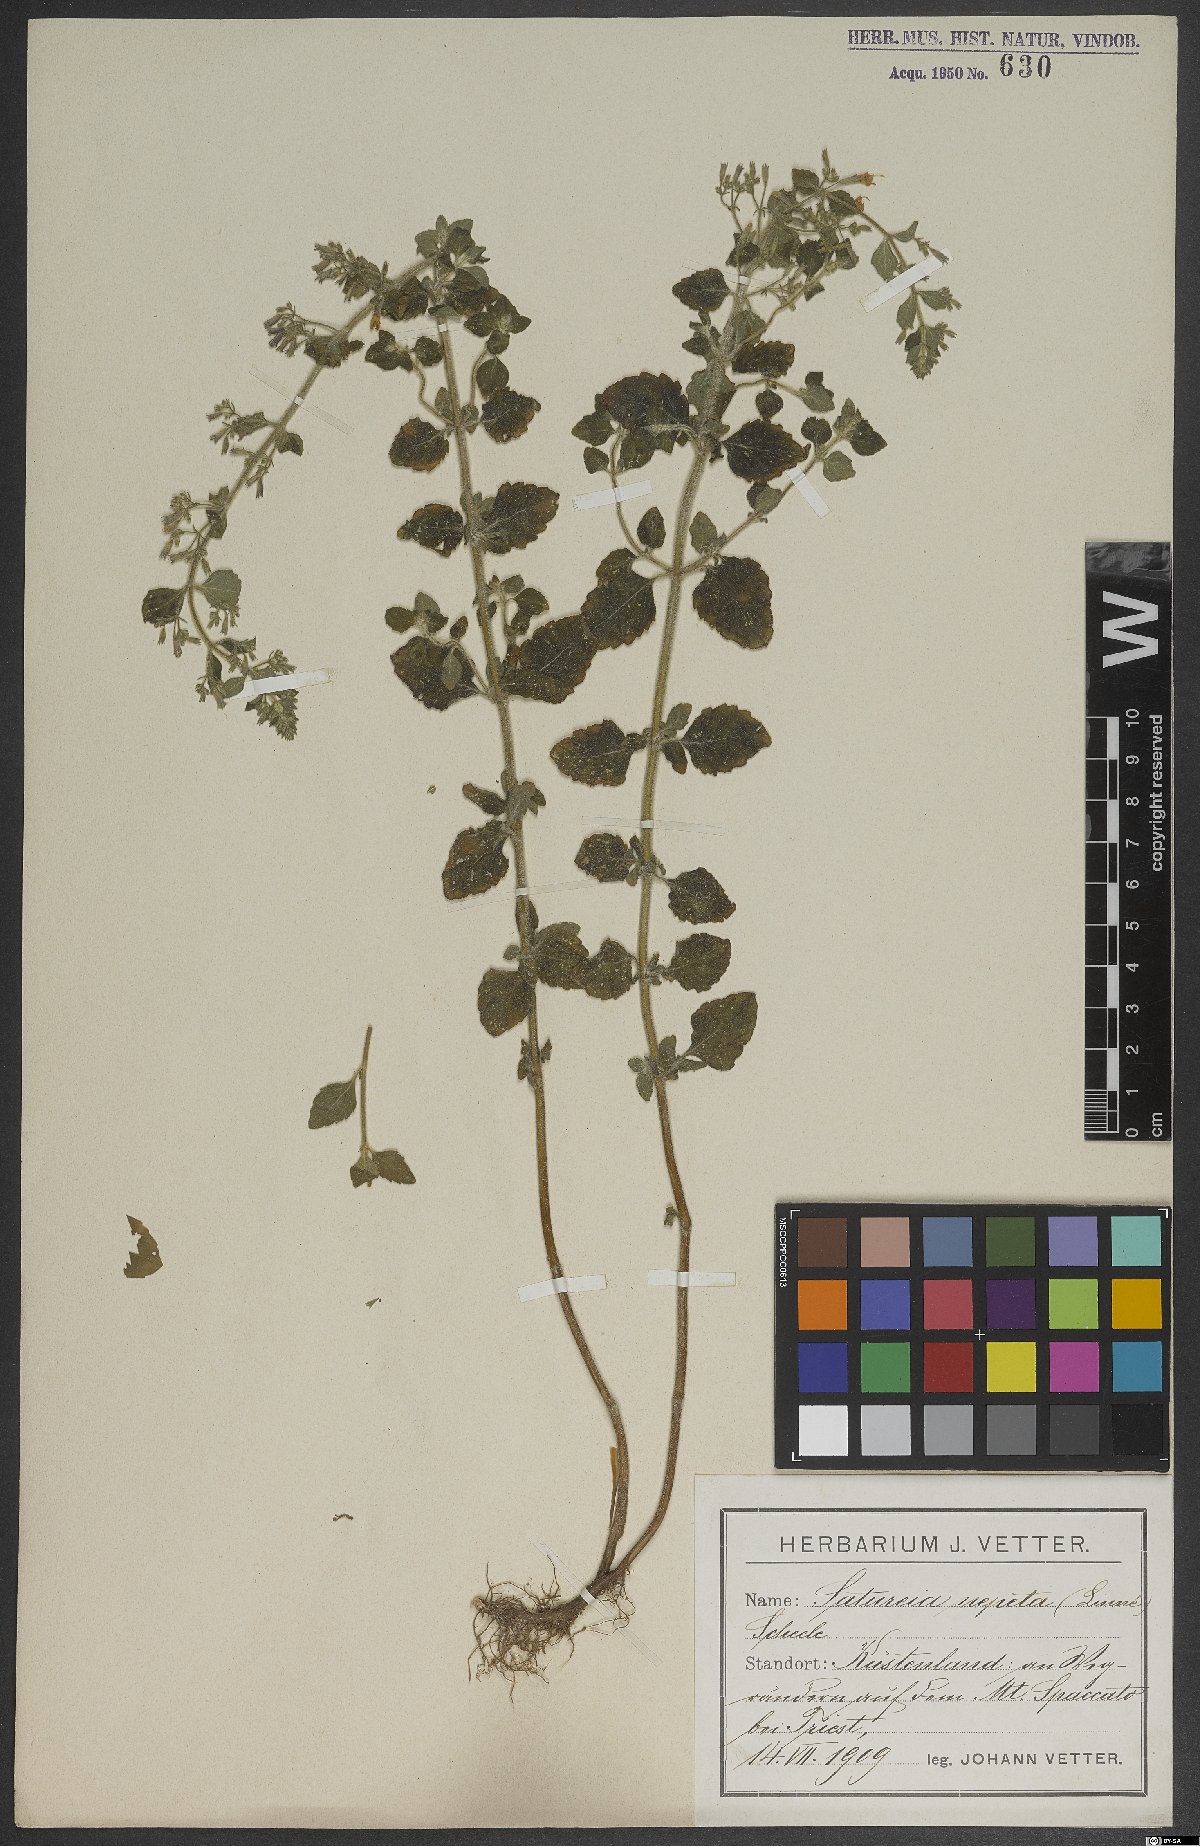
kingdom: Plantae
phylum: Tracheophyta
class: Magnoliopsida
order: Lamiales
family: Lamiaceae
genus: Clinopodium
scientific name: Clinopodium nepeta
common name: Lesser calamint
